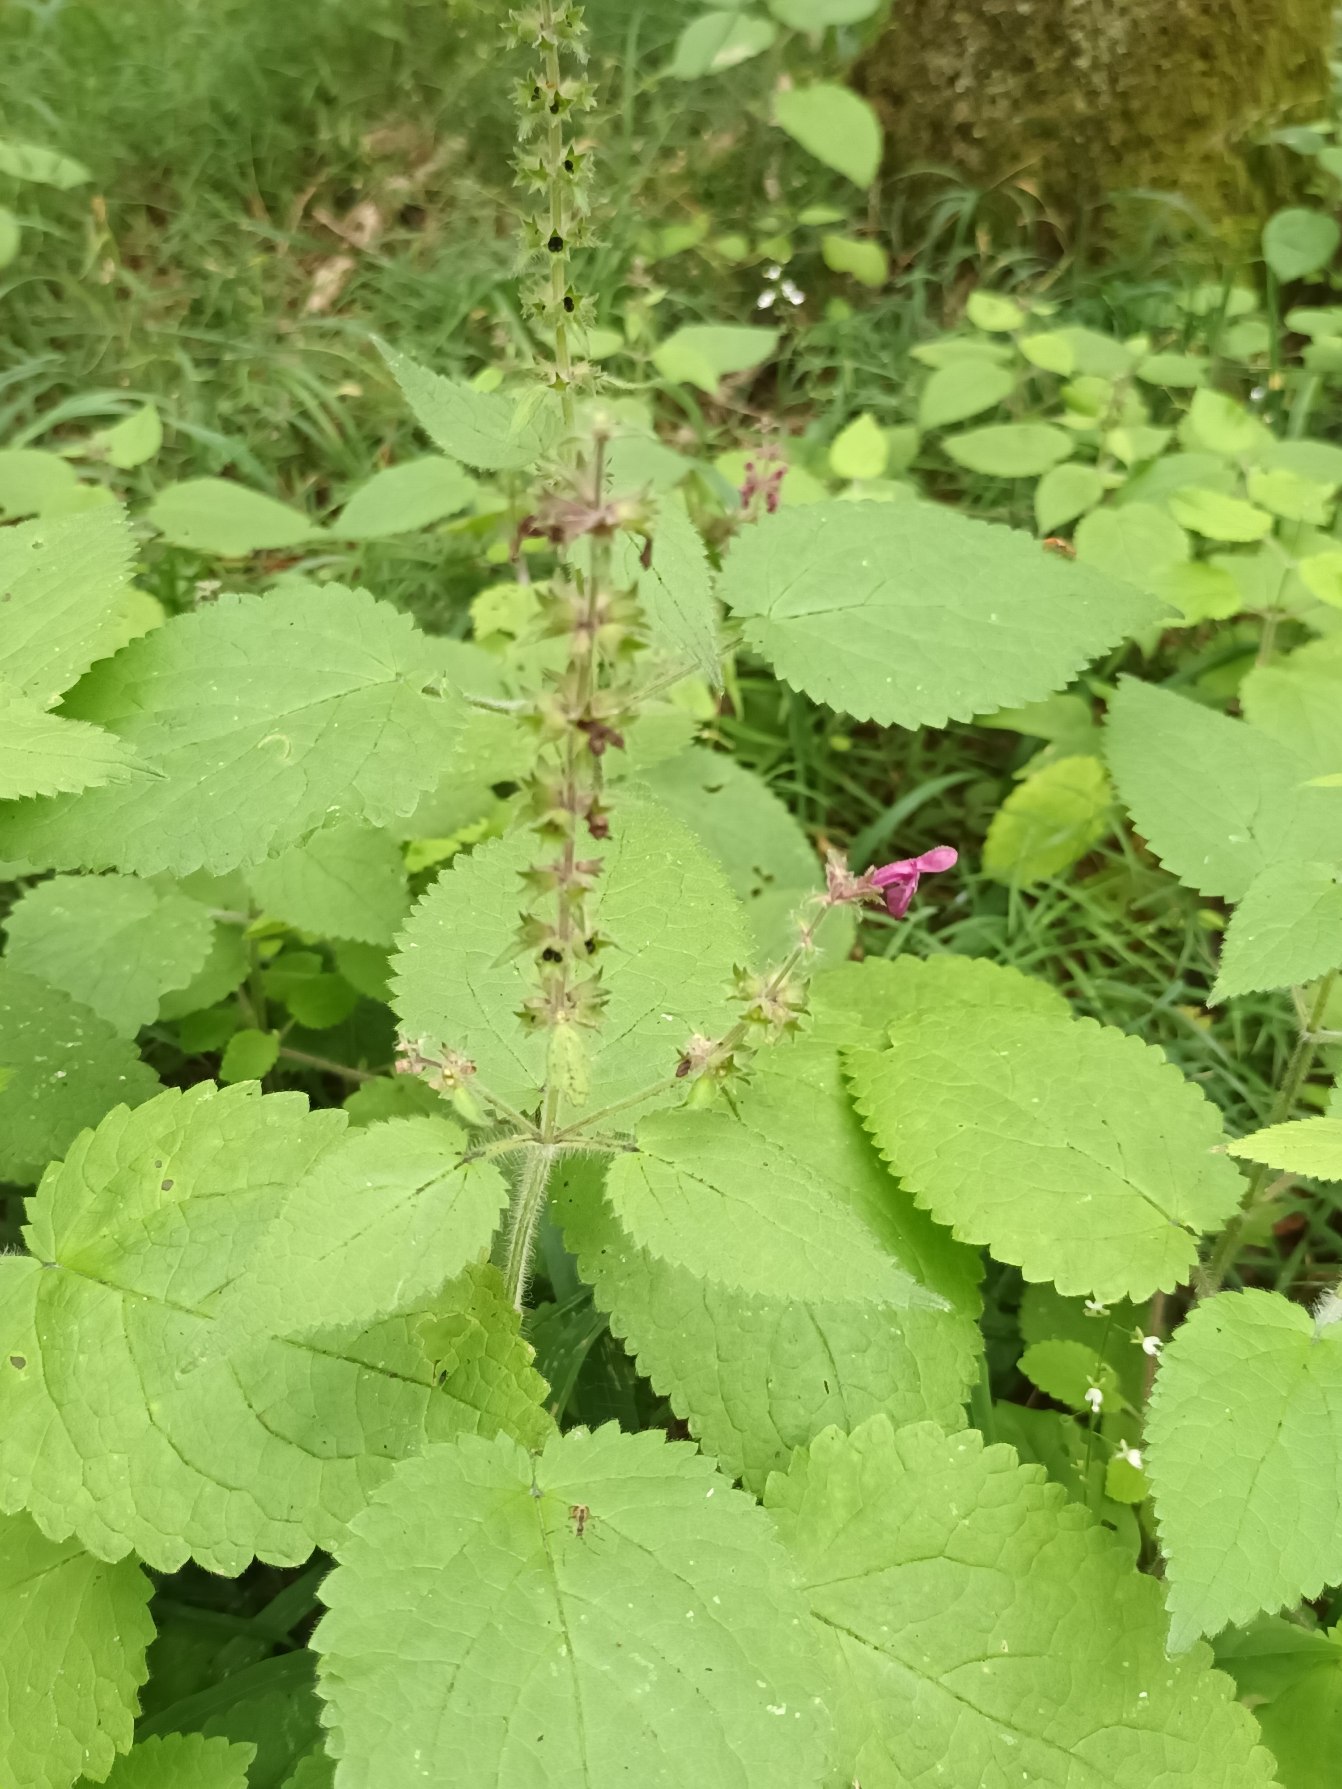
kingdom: Plantae
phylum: Tracheophyta
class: Magnoliopsida
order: Lamiales
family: Lamiaceae
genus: Stachys
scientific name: Stachys sylvatica
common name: Skov-galtetand
